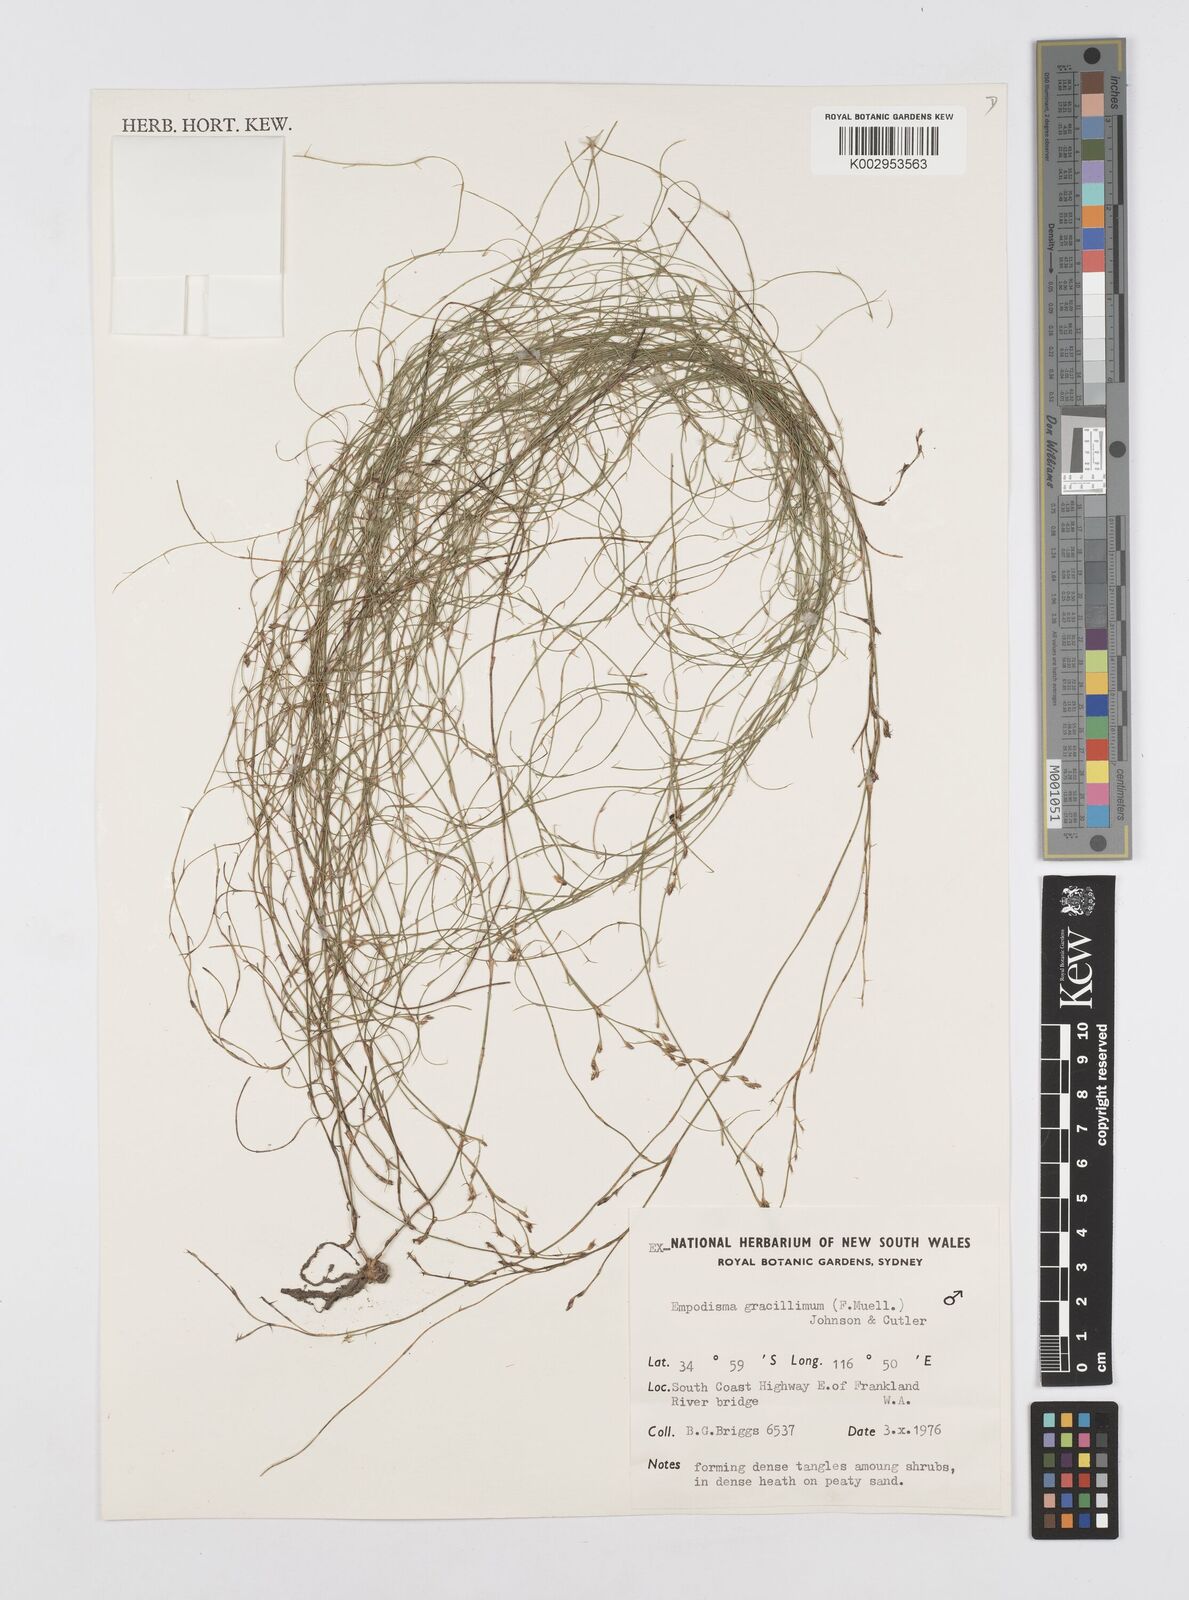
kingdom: Plantae
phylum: Tracheophyta
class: Liliopsida
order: Poales
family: Restionaceae
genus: Empodisma
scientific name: Empodisma gracillimum
